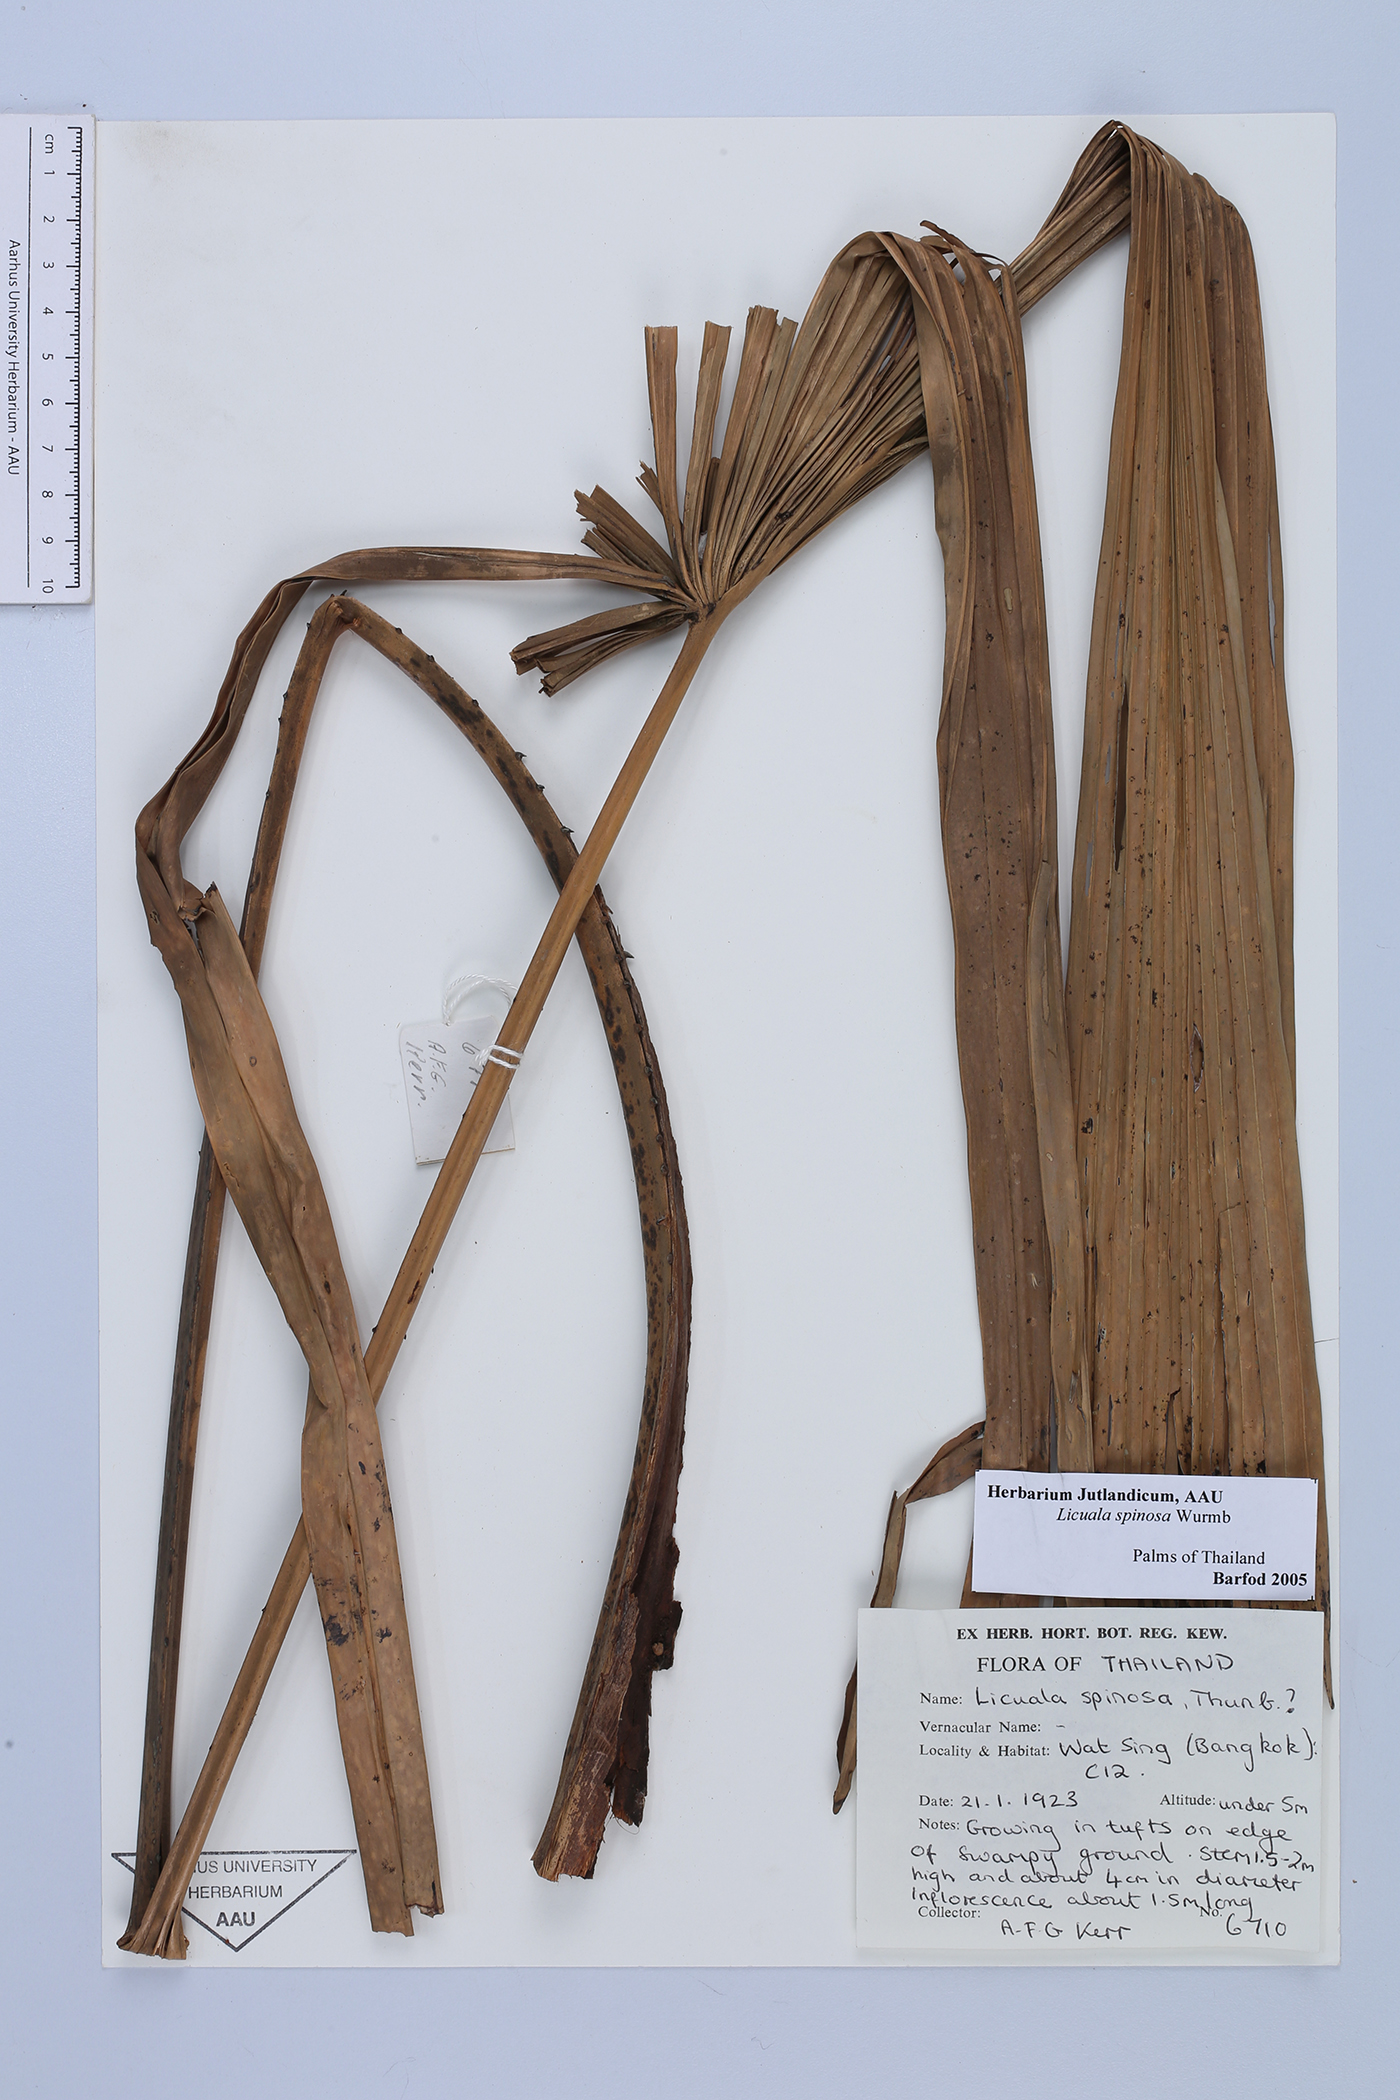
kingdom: Plantae
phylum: Tracheophyta
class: Liliopsida
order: Arecales
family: Arecaceae
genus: Licuala
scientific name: Licuala spinosa
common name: Mangrove fan palm
